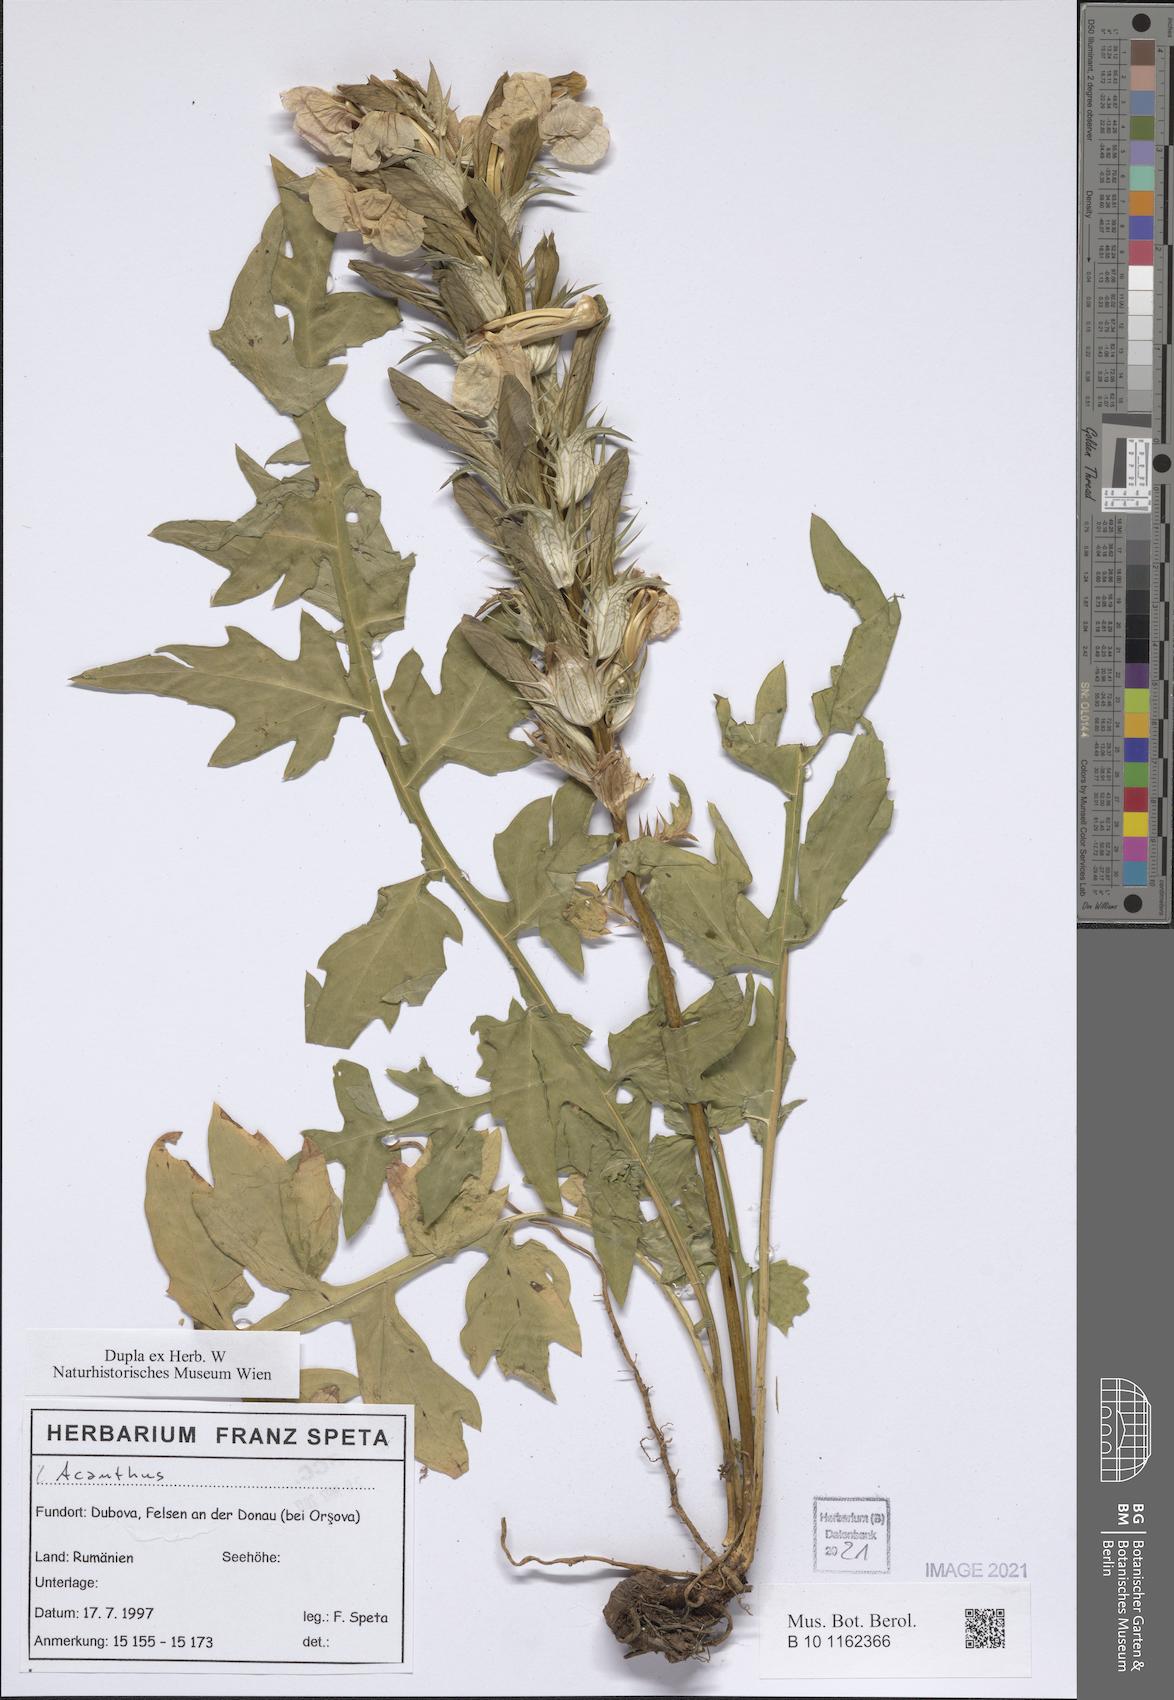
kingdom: Plantae
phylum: Tracheophyta
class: Magnoliopsida
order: Lamiales
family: Acanthaceae
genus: Acanthus
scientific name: Acanthus
